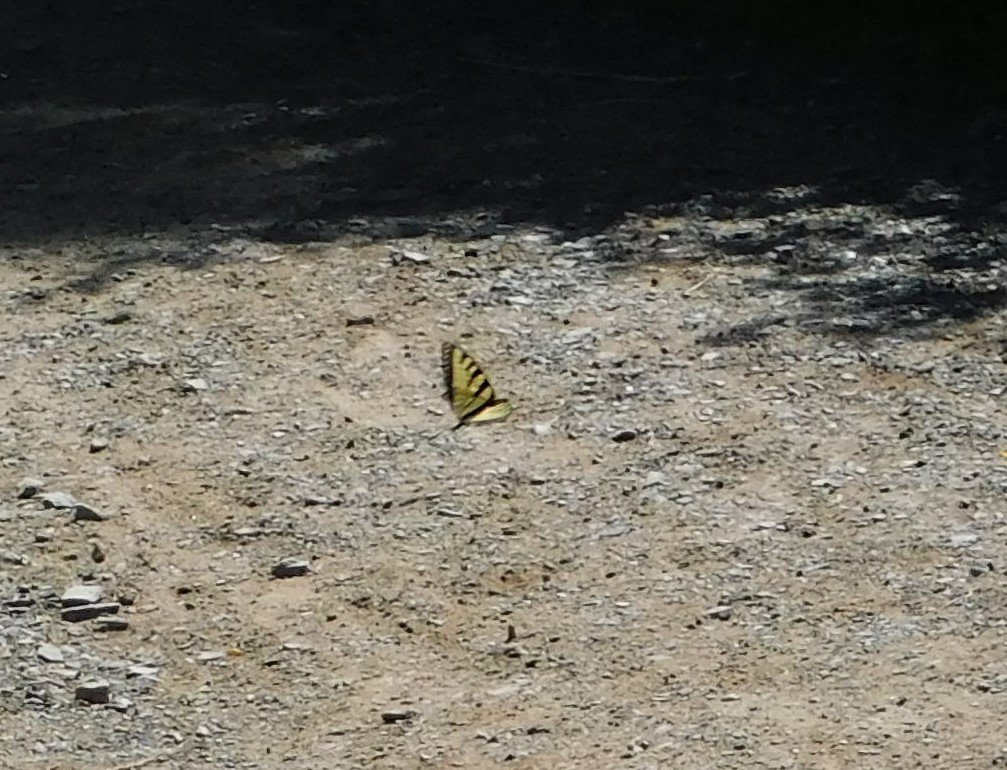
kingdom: Animalia
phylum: Arthropoda
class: Insecta
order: Lepidoptera
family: Papilionidae
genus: Pterourus
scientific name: Pterourus canadensis
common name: Canadian Tiger Swallowtail
